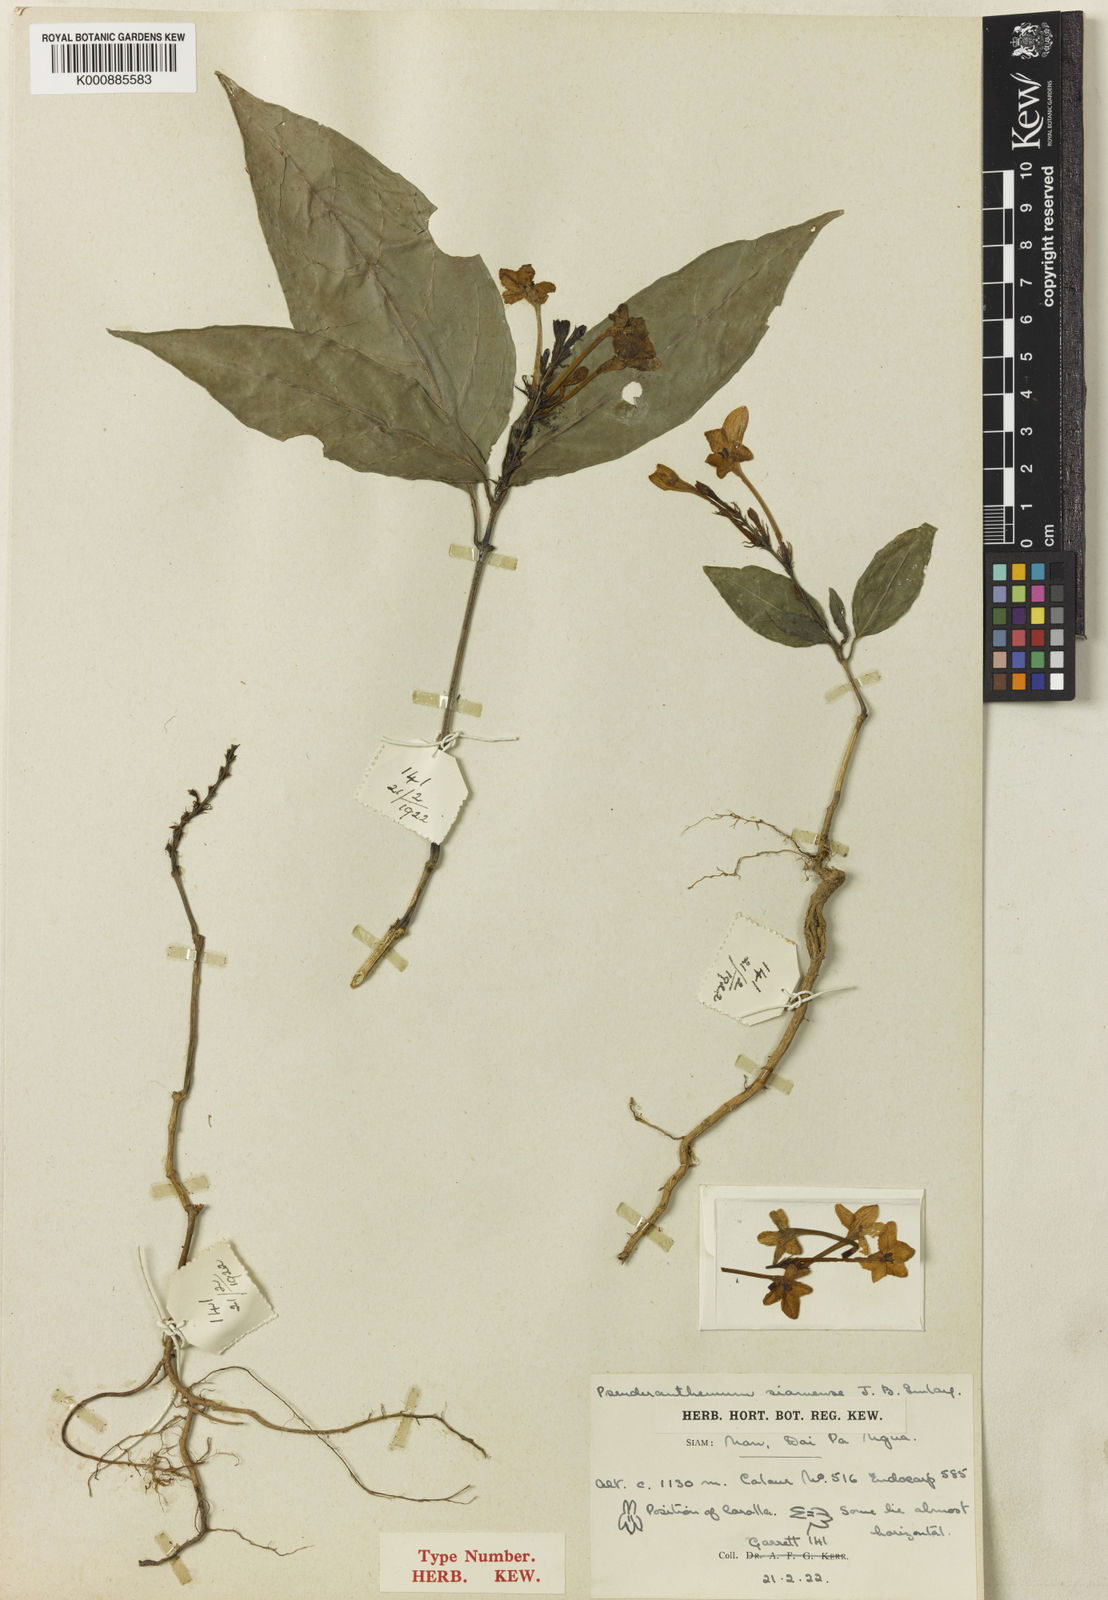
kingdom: Plantae
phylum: Tracheophyta
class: Magnoliopsida
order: Lamiales
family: Acanthaceae
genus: Pseuderanthemum
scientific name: Pseuderanthemum siamense
